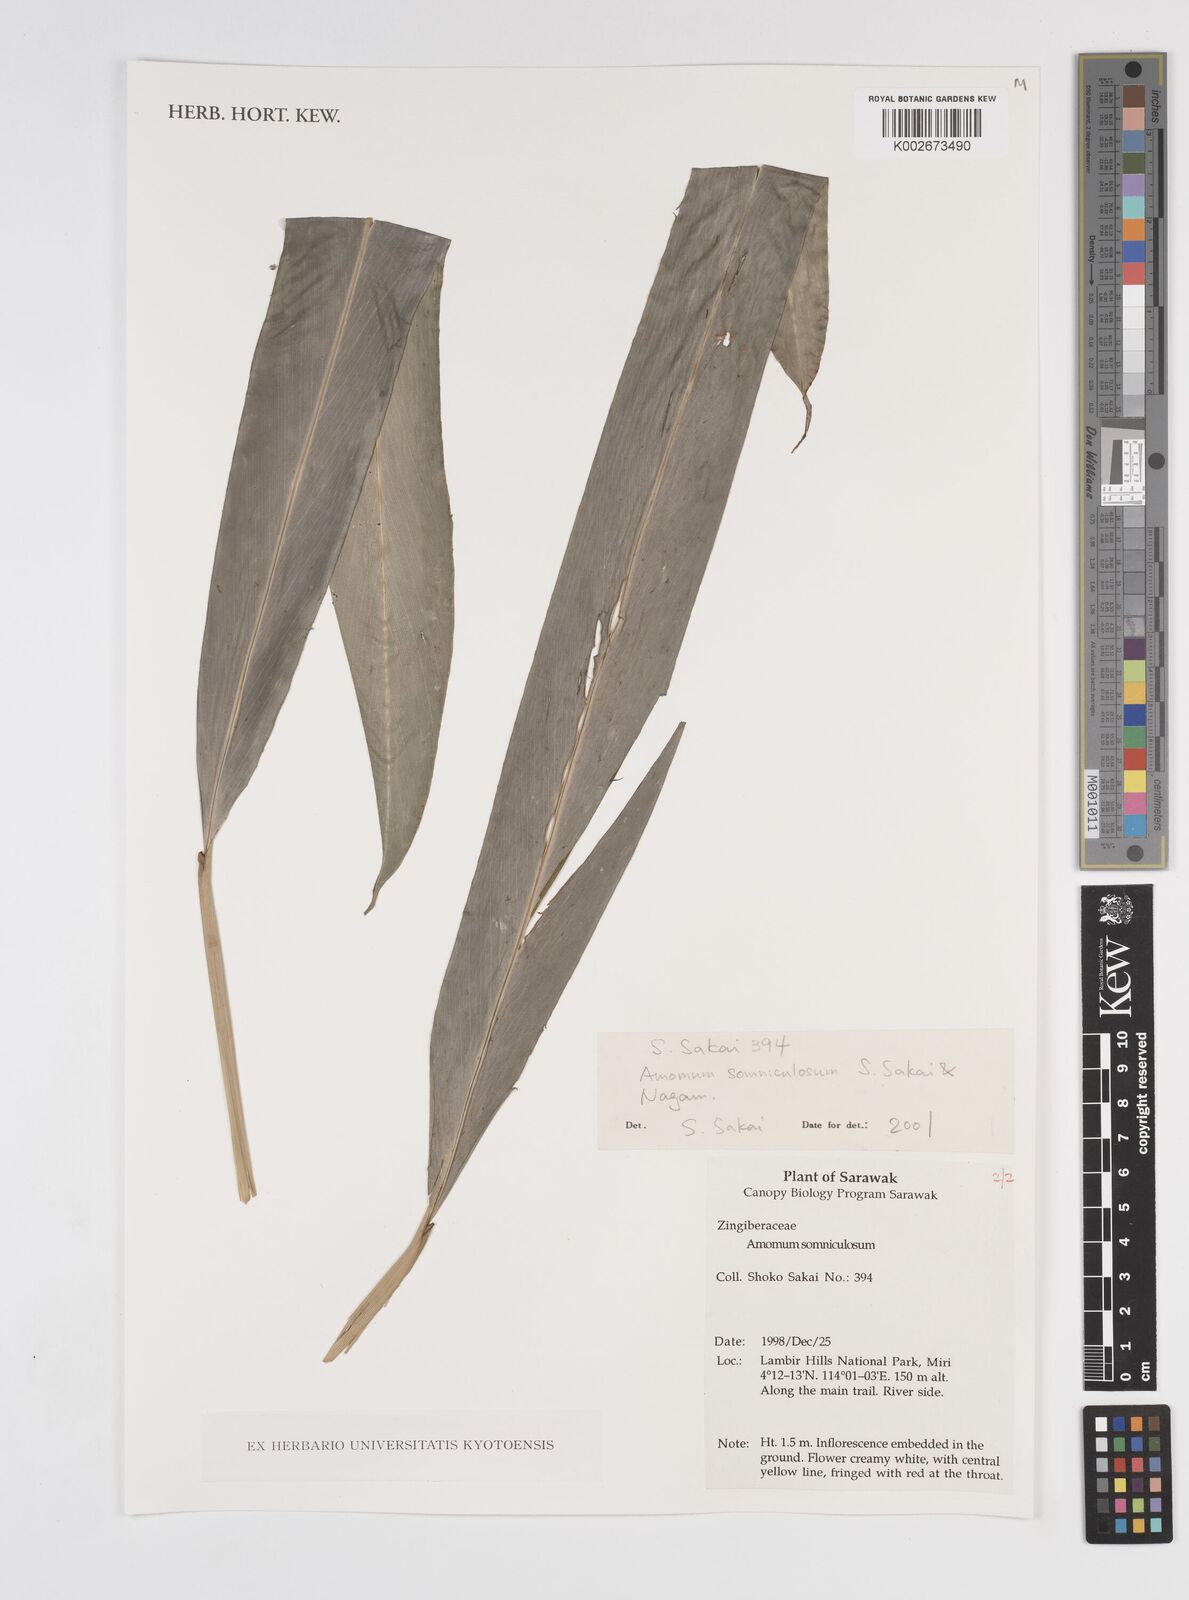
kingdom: Plantae
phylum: Tracheophyta
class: Liliopsida
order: Zingiberales
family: Zingiberaceae
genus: Sundamomum
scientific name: Sundamomum somniculosum
